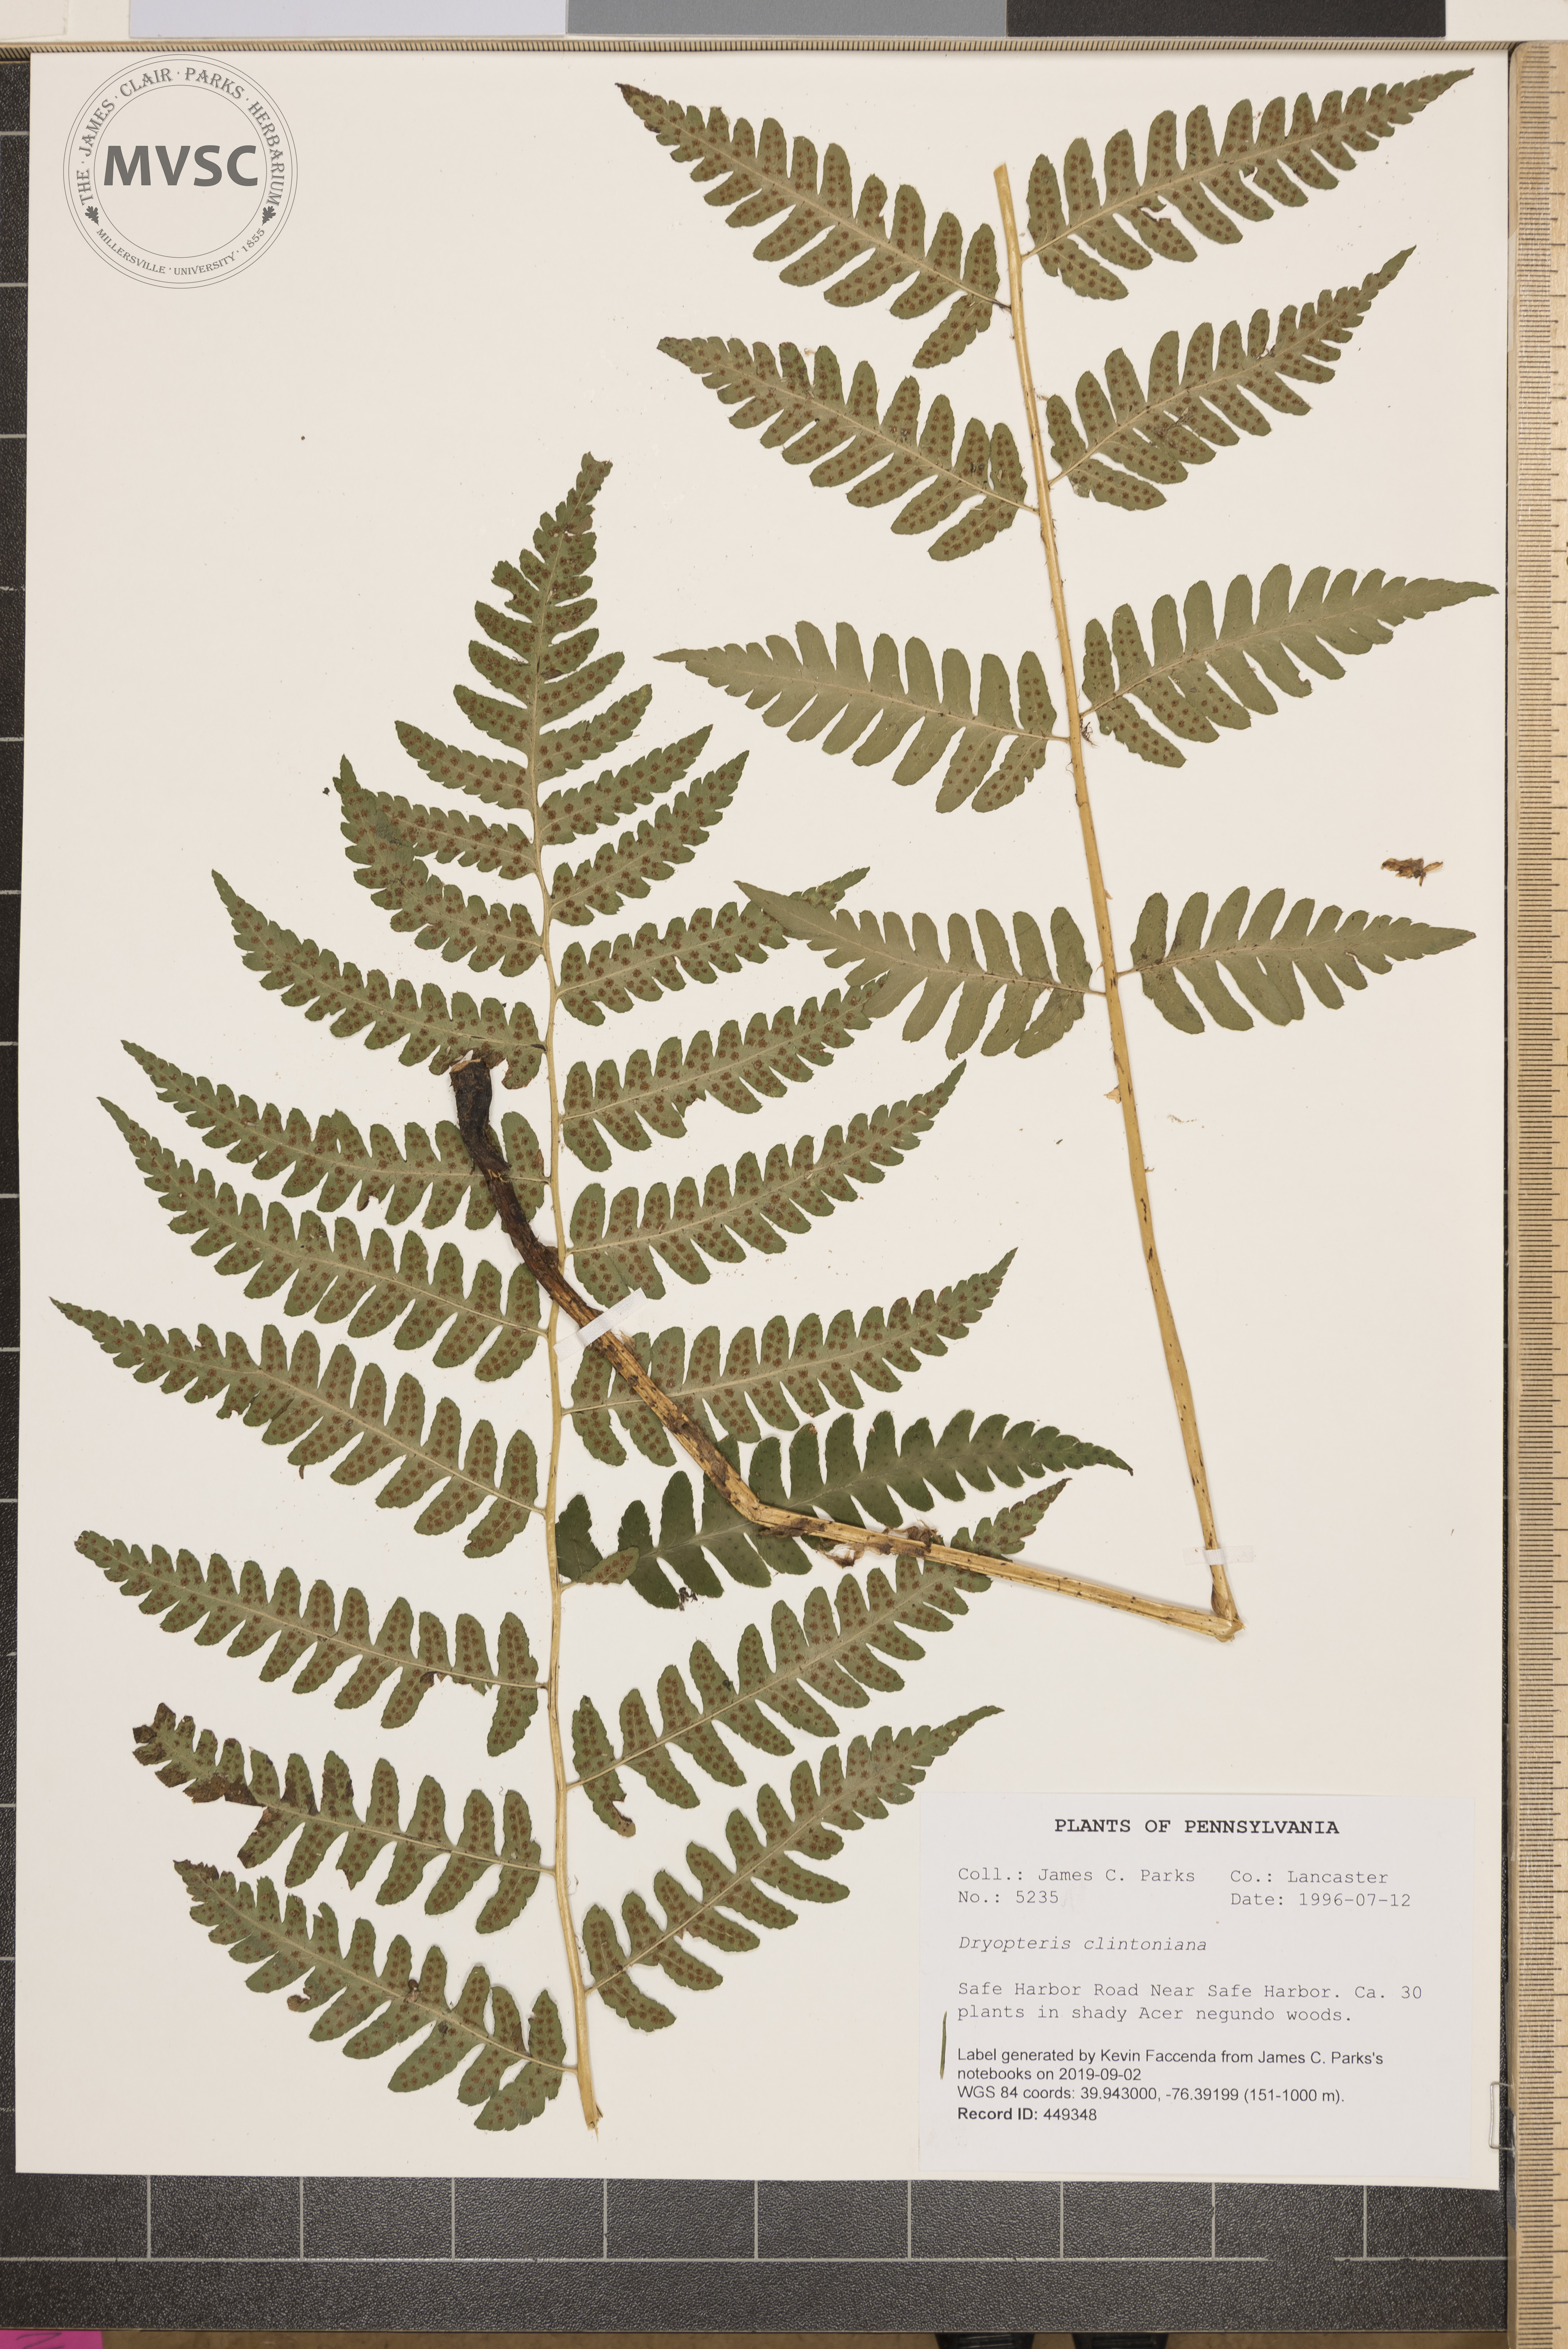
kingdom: Plantae
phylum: Tracheophyta
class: Polypodiopsida
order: Polypodiales
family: Dryopteridaceae
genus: Dryopteris
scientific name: Dryopteris clintoniana
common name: Clinton's wood fern
